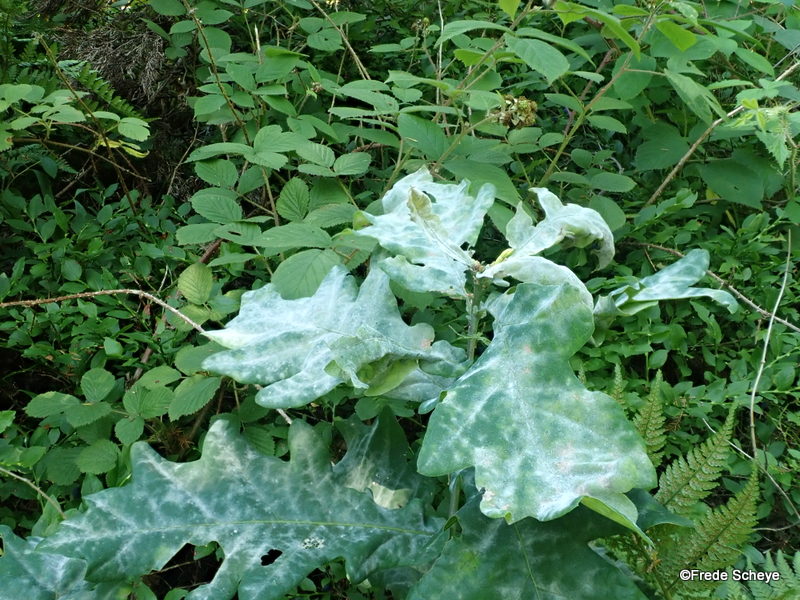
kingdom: Fungi
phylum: Ascomycota
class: Leotiomycetes
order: Helotiales
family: Erysiphaceae
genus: Erysiphe
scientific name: Erysiphe alphitoides
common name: ege-meldug
